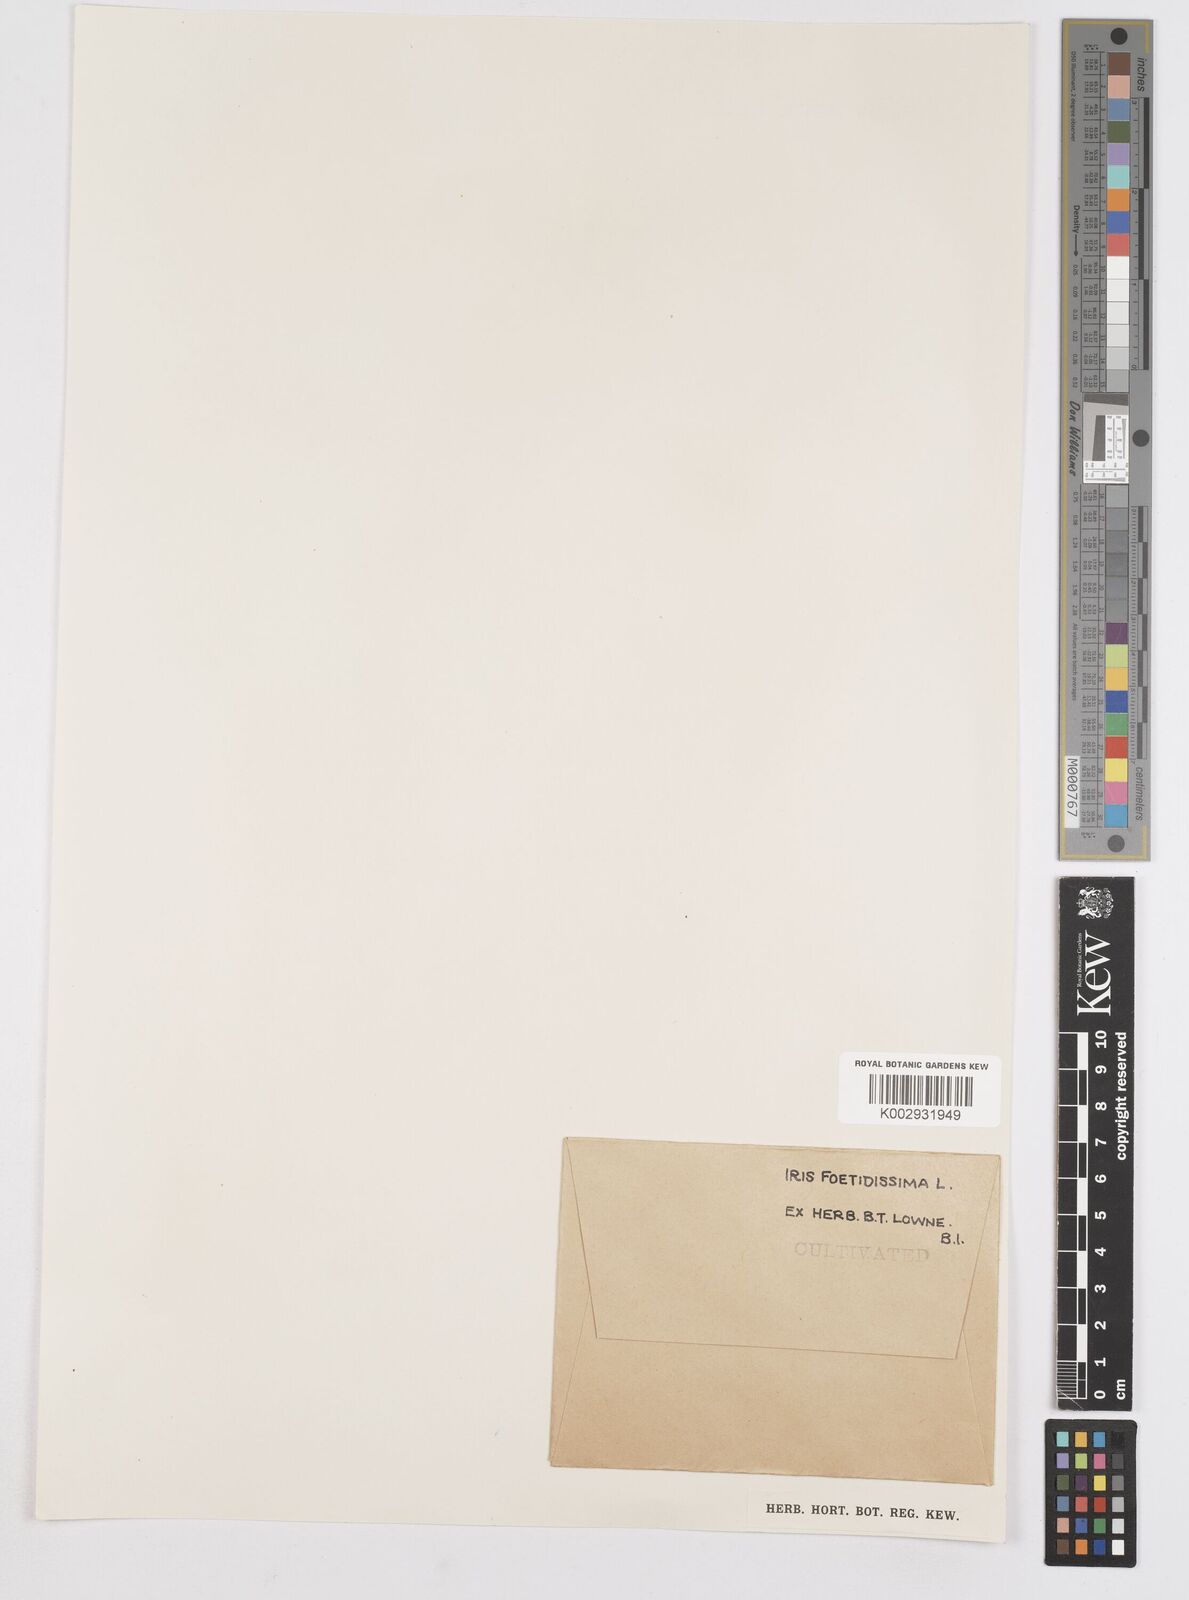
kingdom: Plantae
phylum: Tracheophyta
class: Liliopsida
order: Asparagales
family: Iridaceae
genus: Iris
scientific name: Iris foetidissima
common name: Stinking iris
